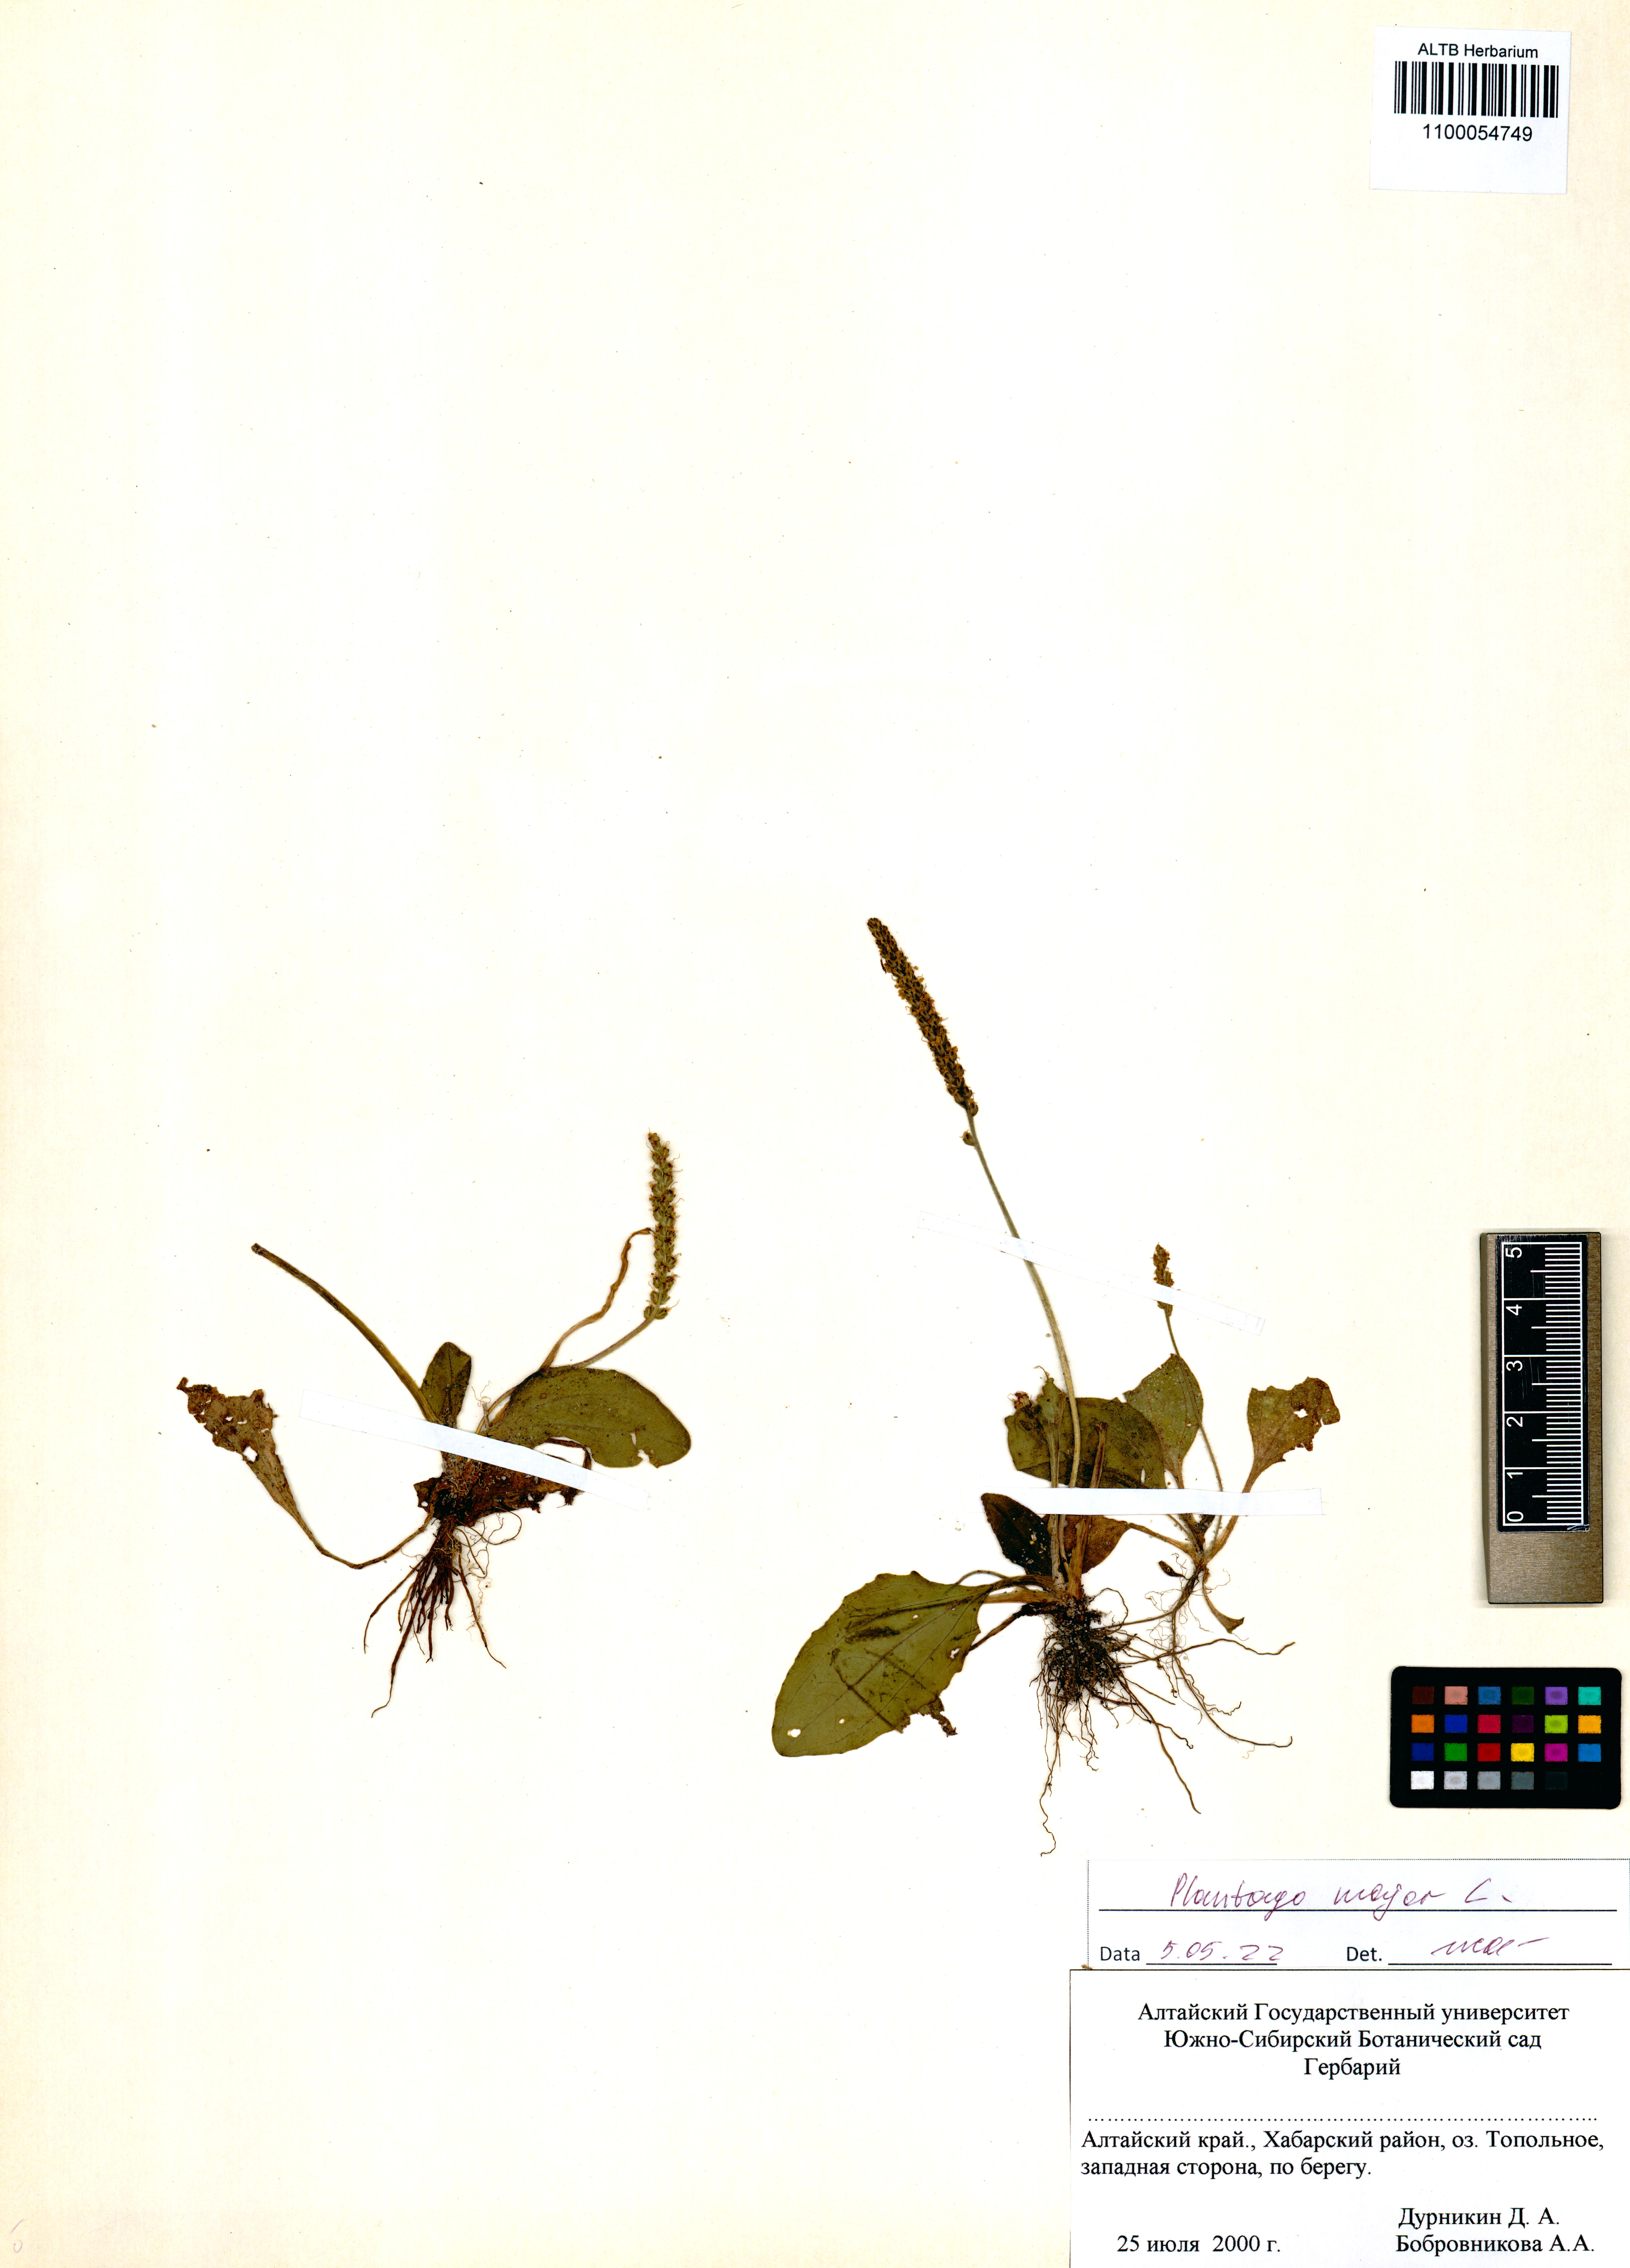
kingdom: Plantae
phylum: Tracheophyta
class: Magnoliopsida
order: Lamiales
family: Plantaginaceae
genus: Plantago
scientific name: Plantago major
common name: Common plantain
